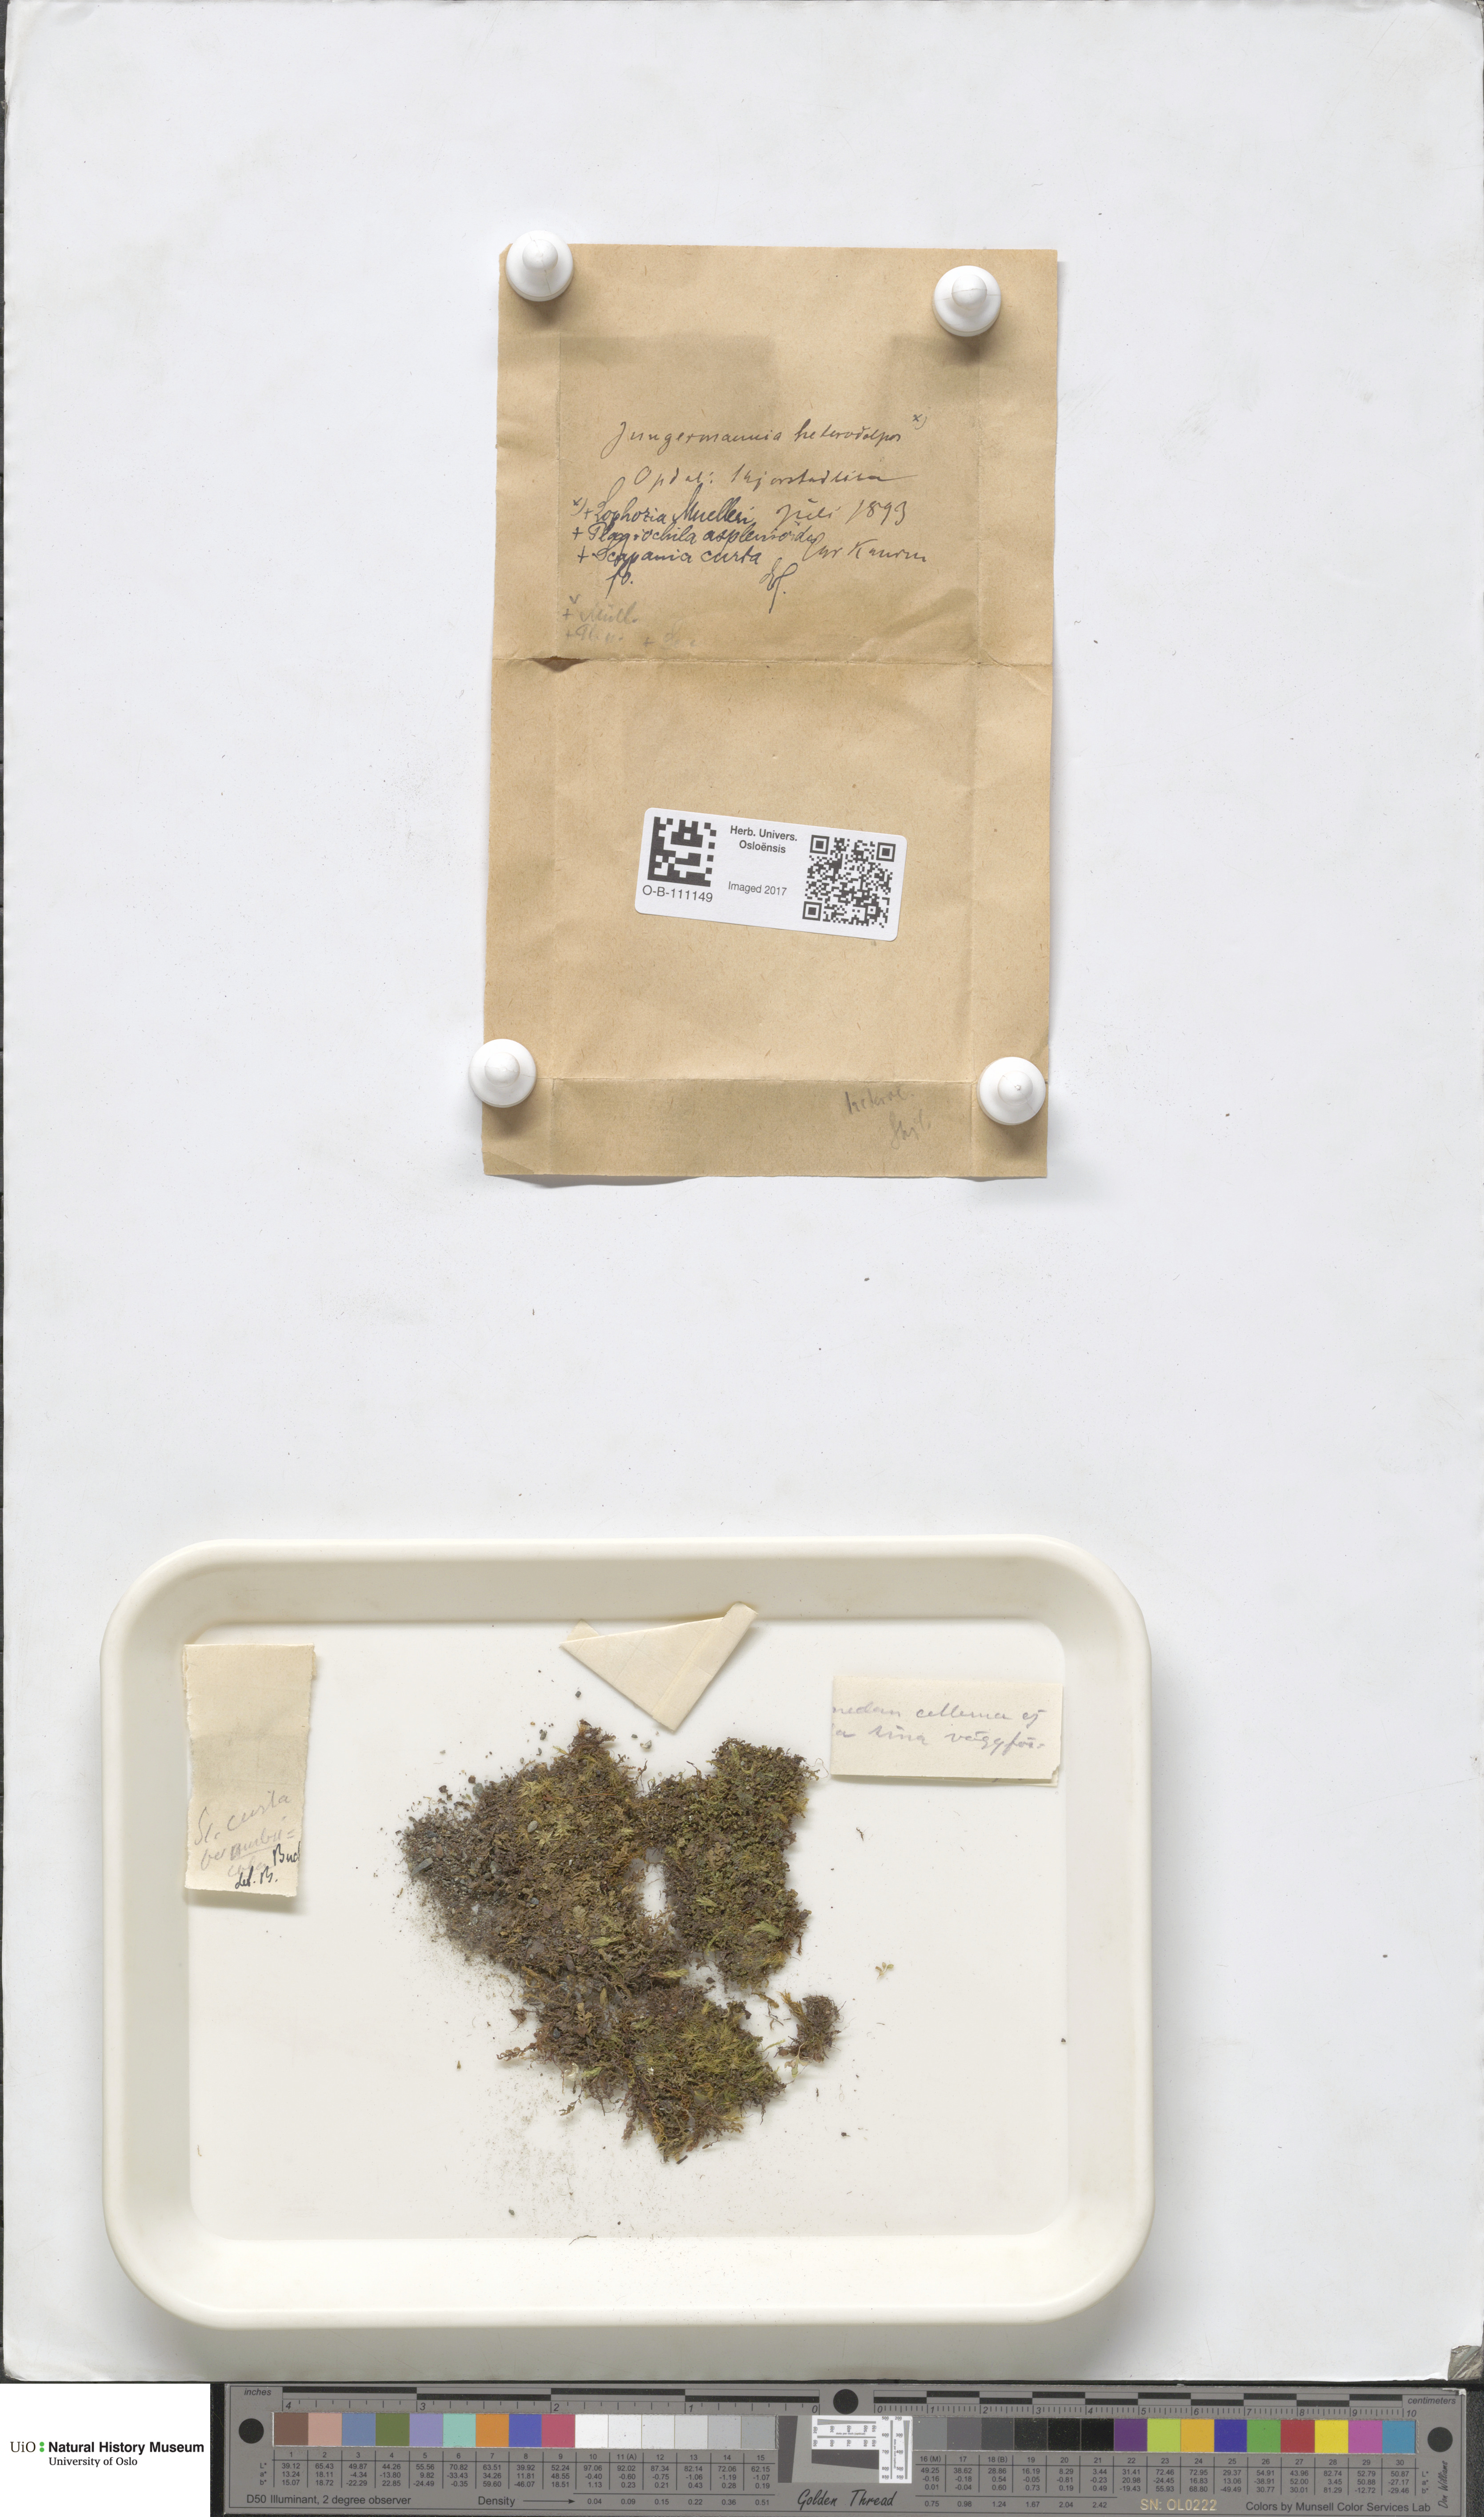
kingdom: Plantae
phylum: Marchantiophyta
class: Jungermanniopsida
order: Jungermanniales
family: Scapaniaceae
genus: Scapania
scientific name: Scapania curta
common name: Least earwort
